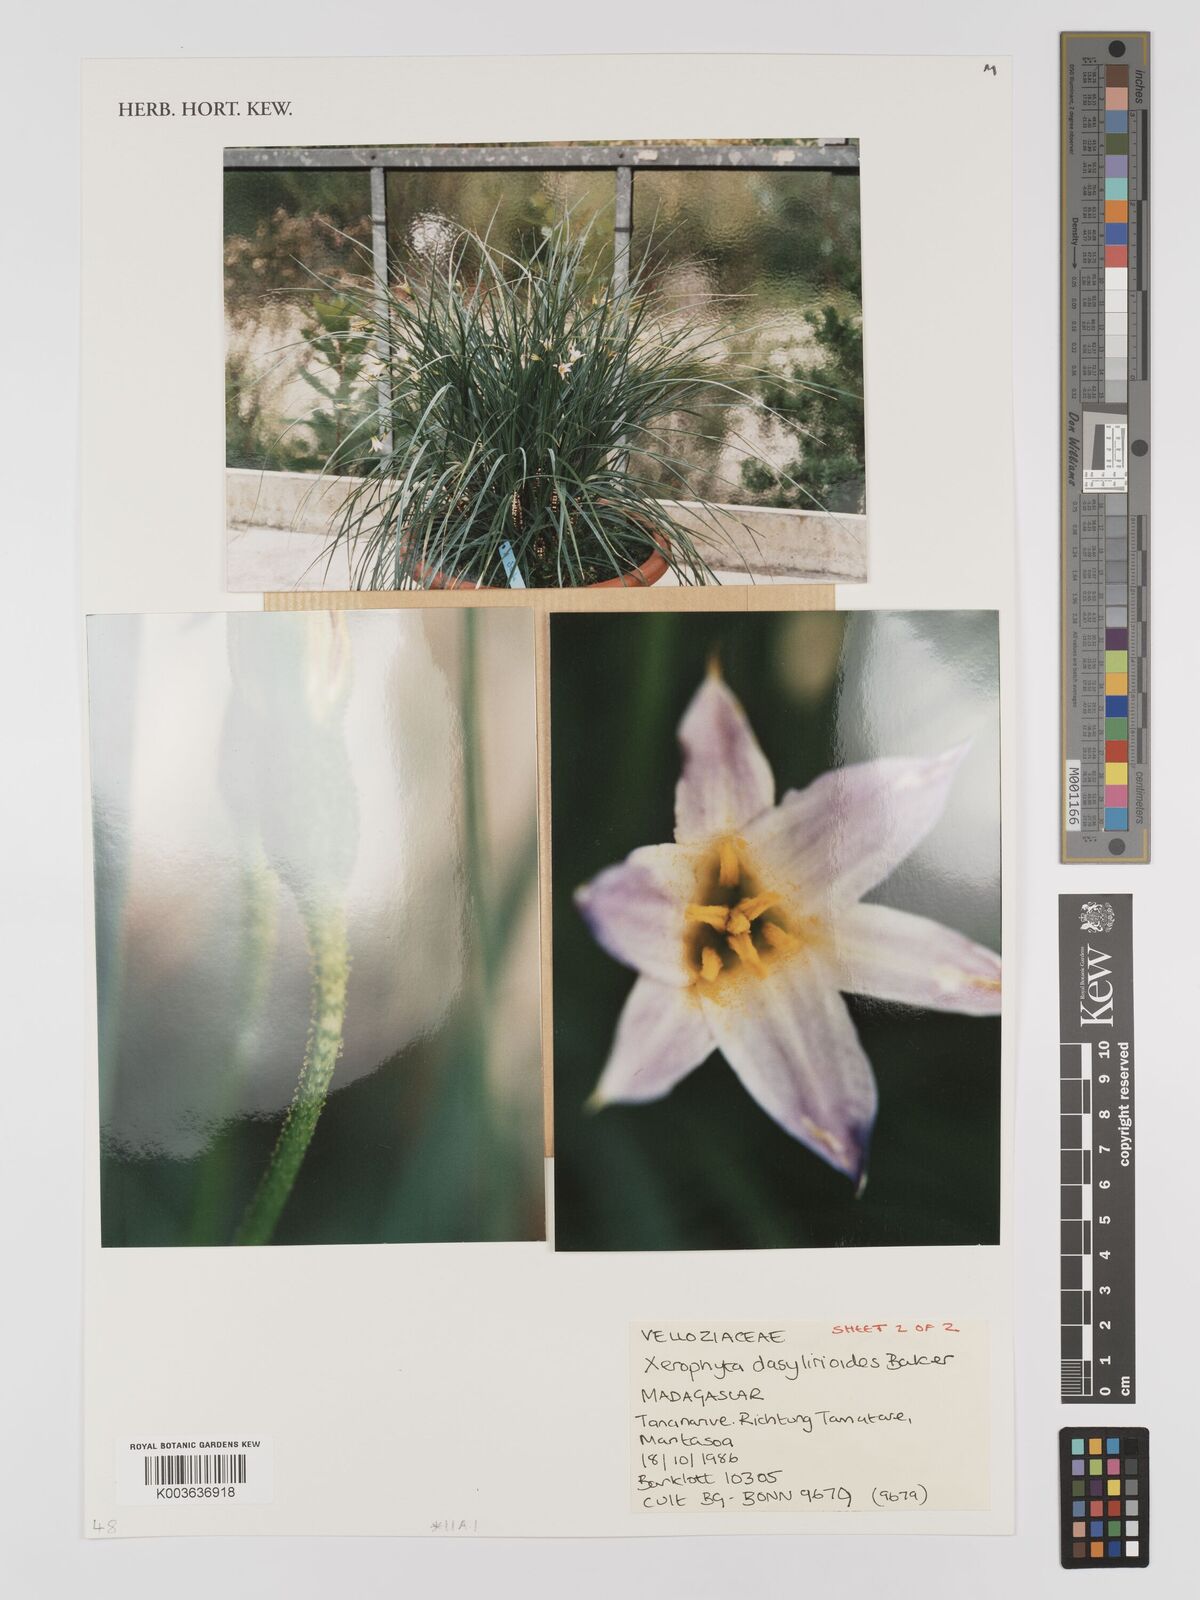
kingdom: Plantae
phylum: Tracheophyta
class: Liliopsida
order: Pandanales
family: Velloziaceae
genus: Xerophyta
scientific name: Xerophyta dasylirioides
